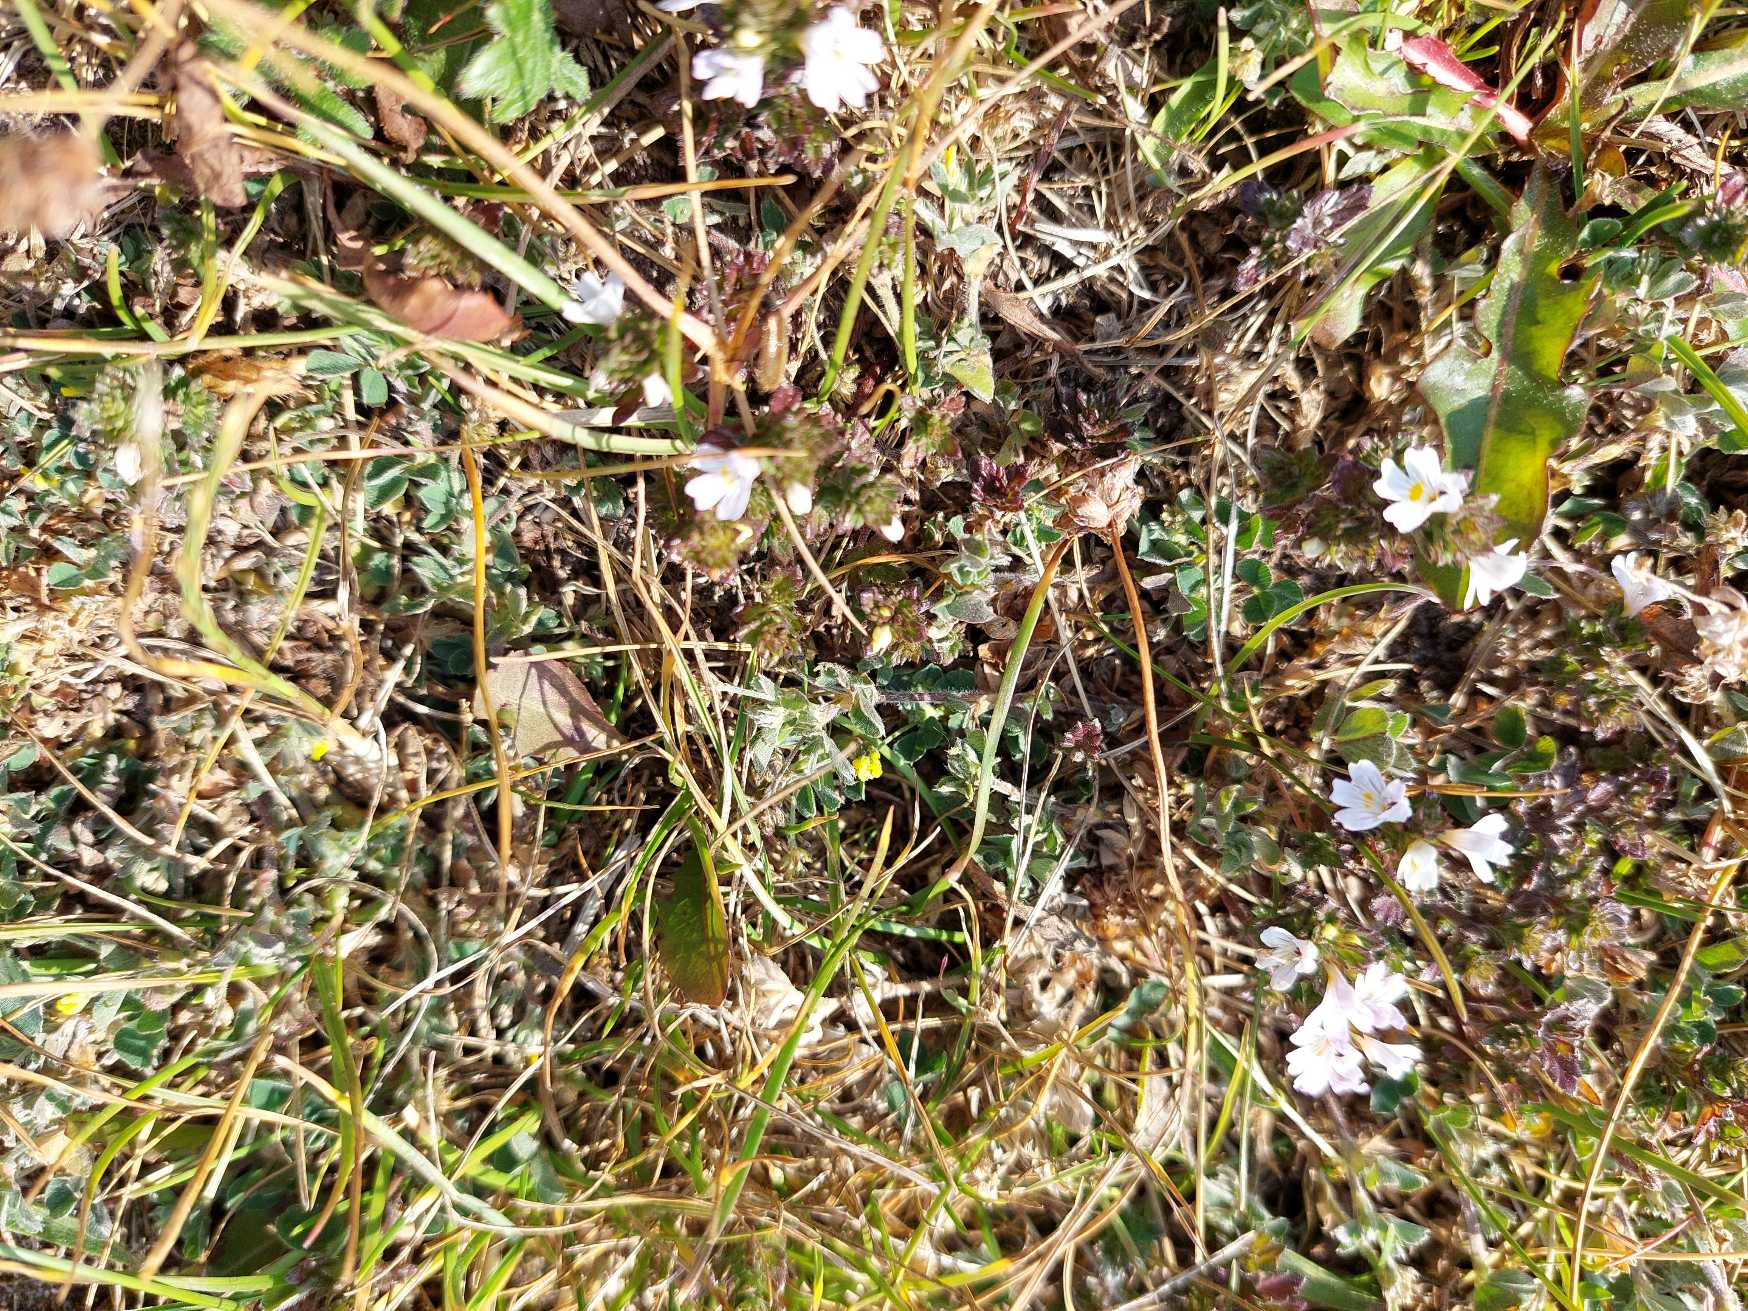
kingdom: Plantae
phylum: Tracheophyta
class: Magnoliopsida
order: Lamiales
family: Orobanchaceae
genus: Euphrasia
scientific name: Euphrasia
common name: Øjentrøstslægten
